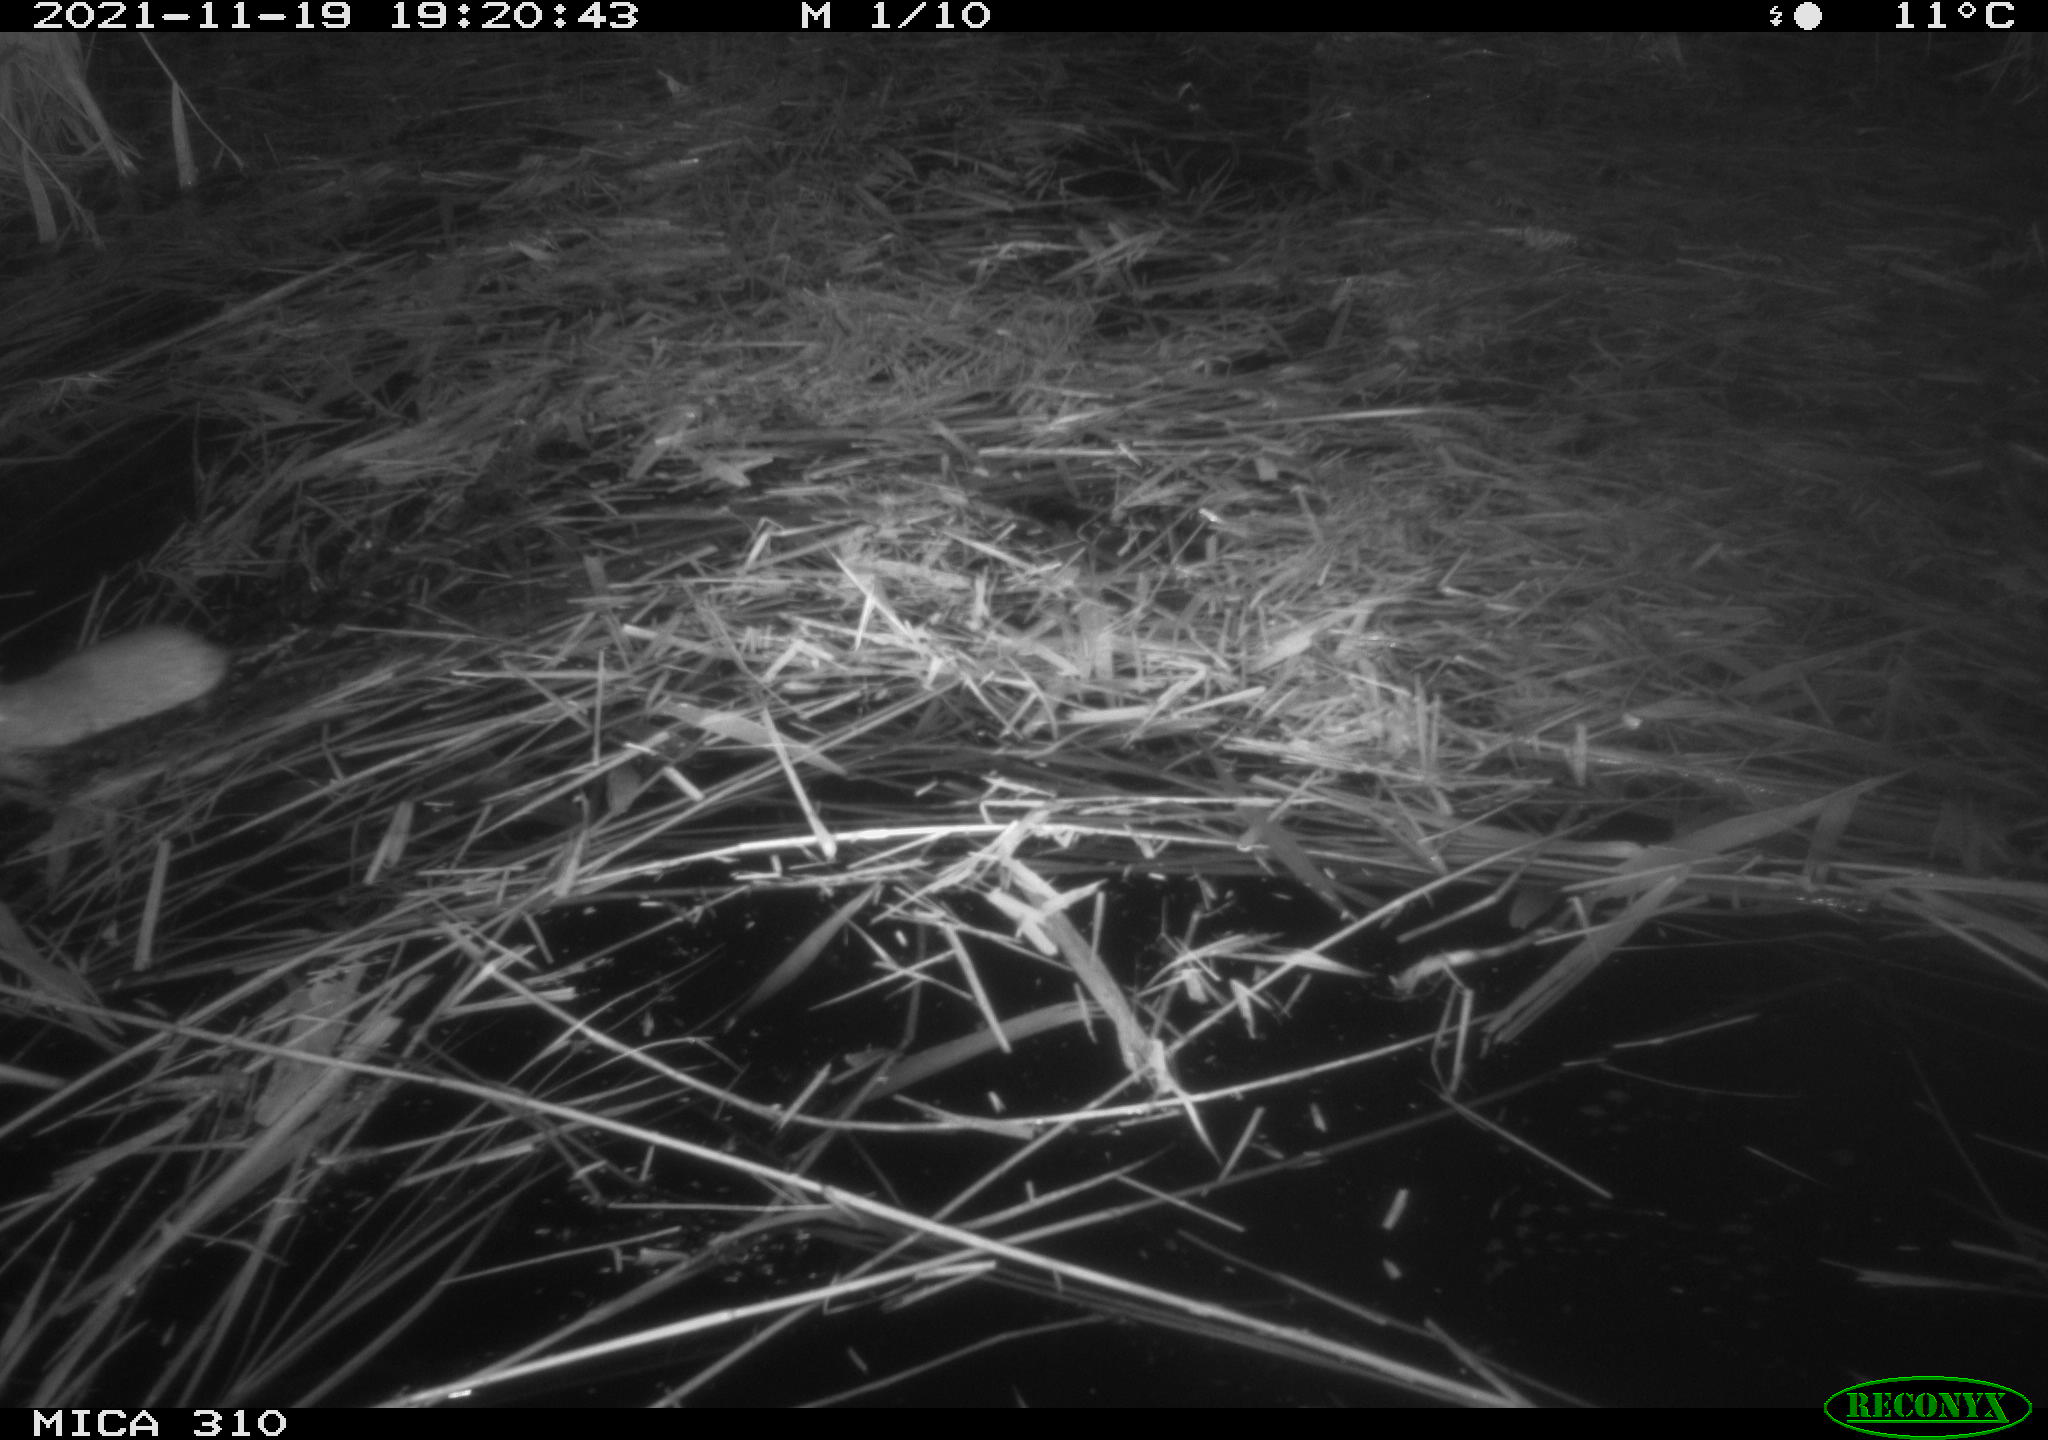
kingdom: Animalia
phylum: Chordata
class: Mammalia
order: Rodentia
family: Muridae
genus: Rattus
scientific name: Rattus norvegicus
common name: Brown rat
